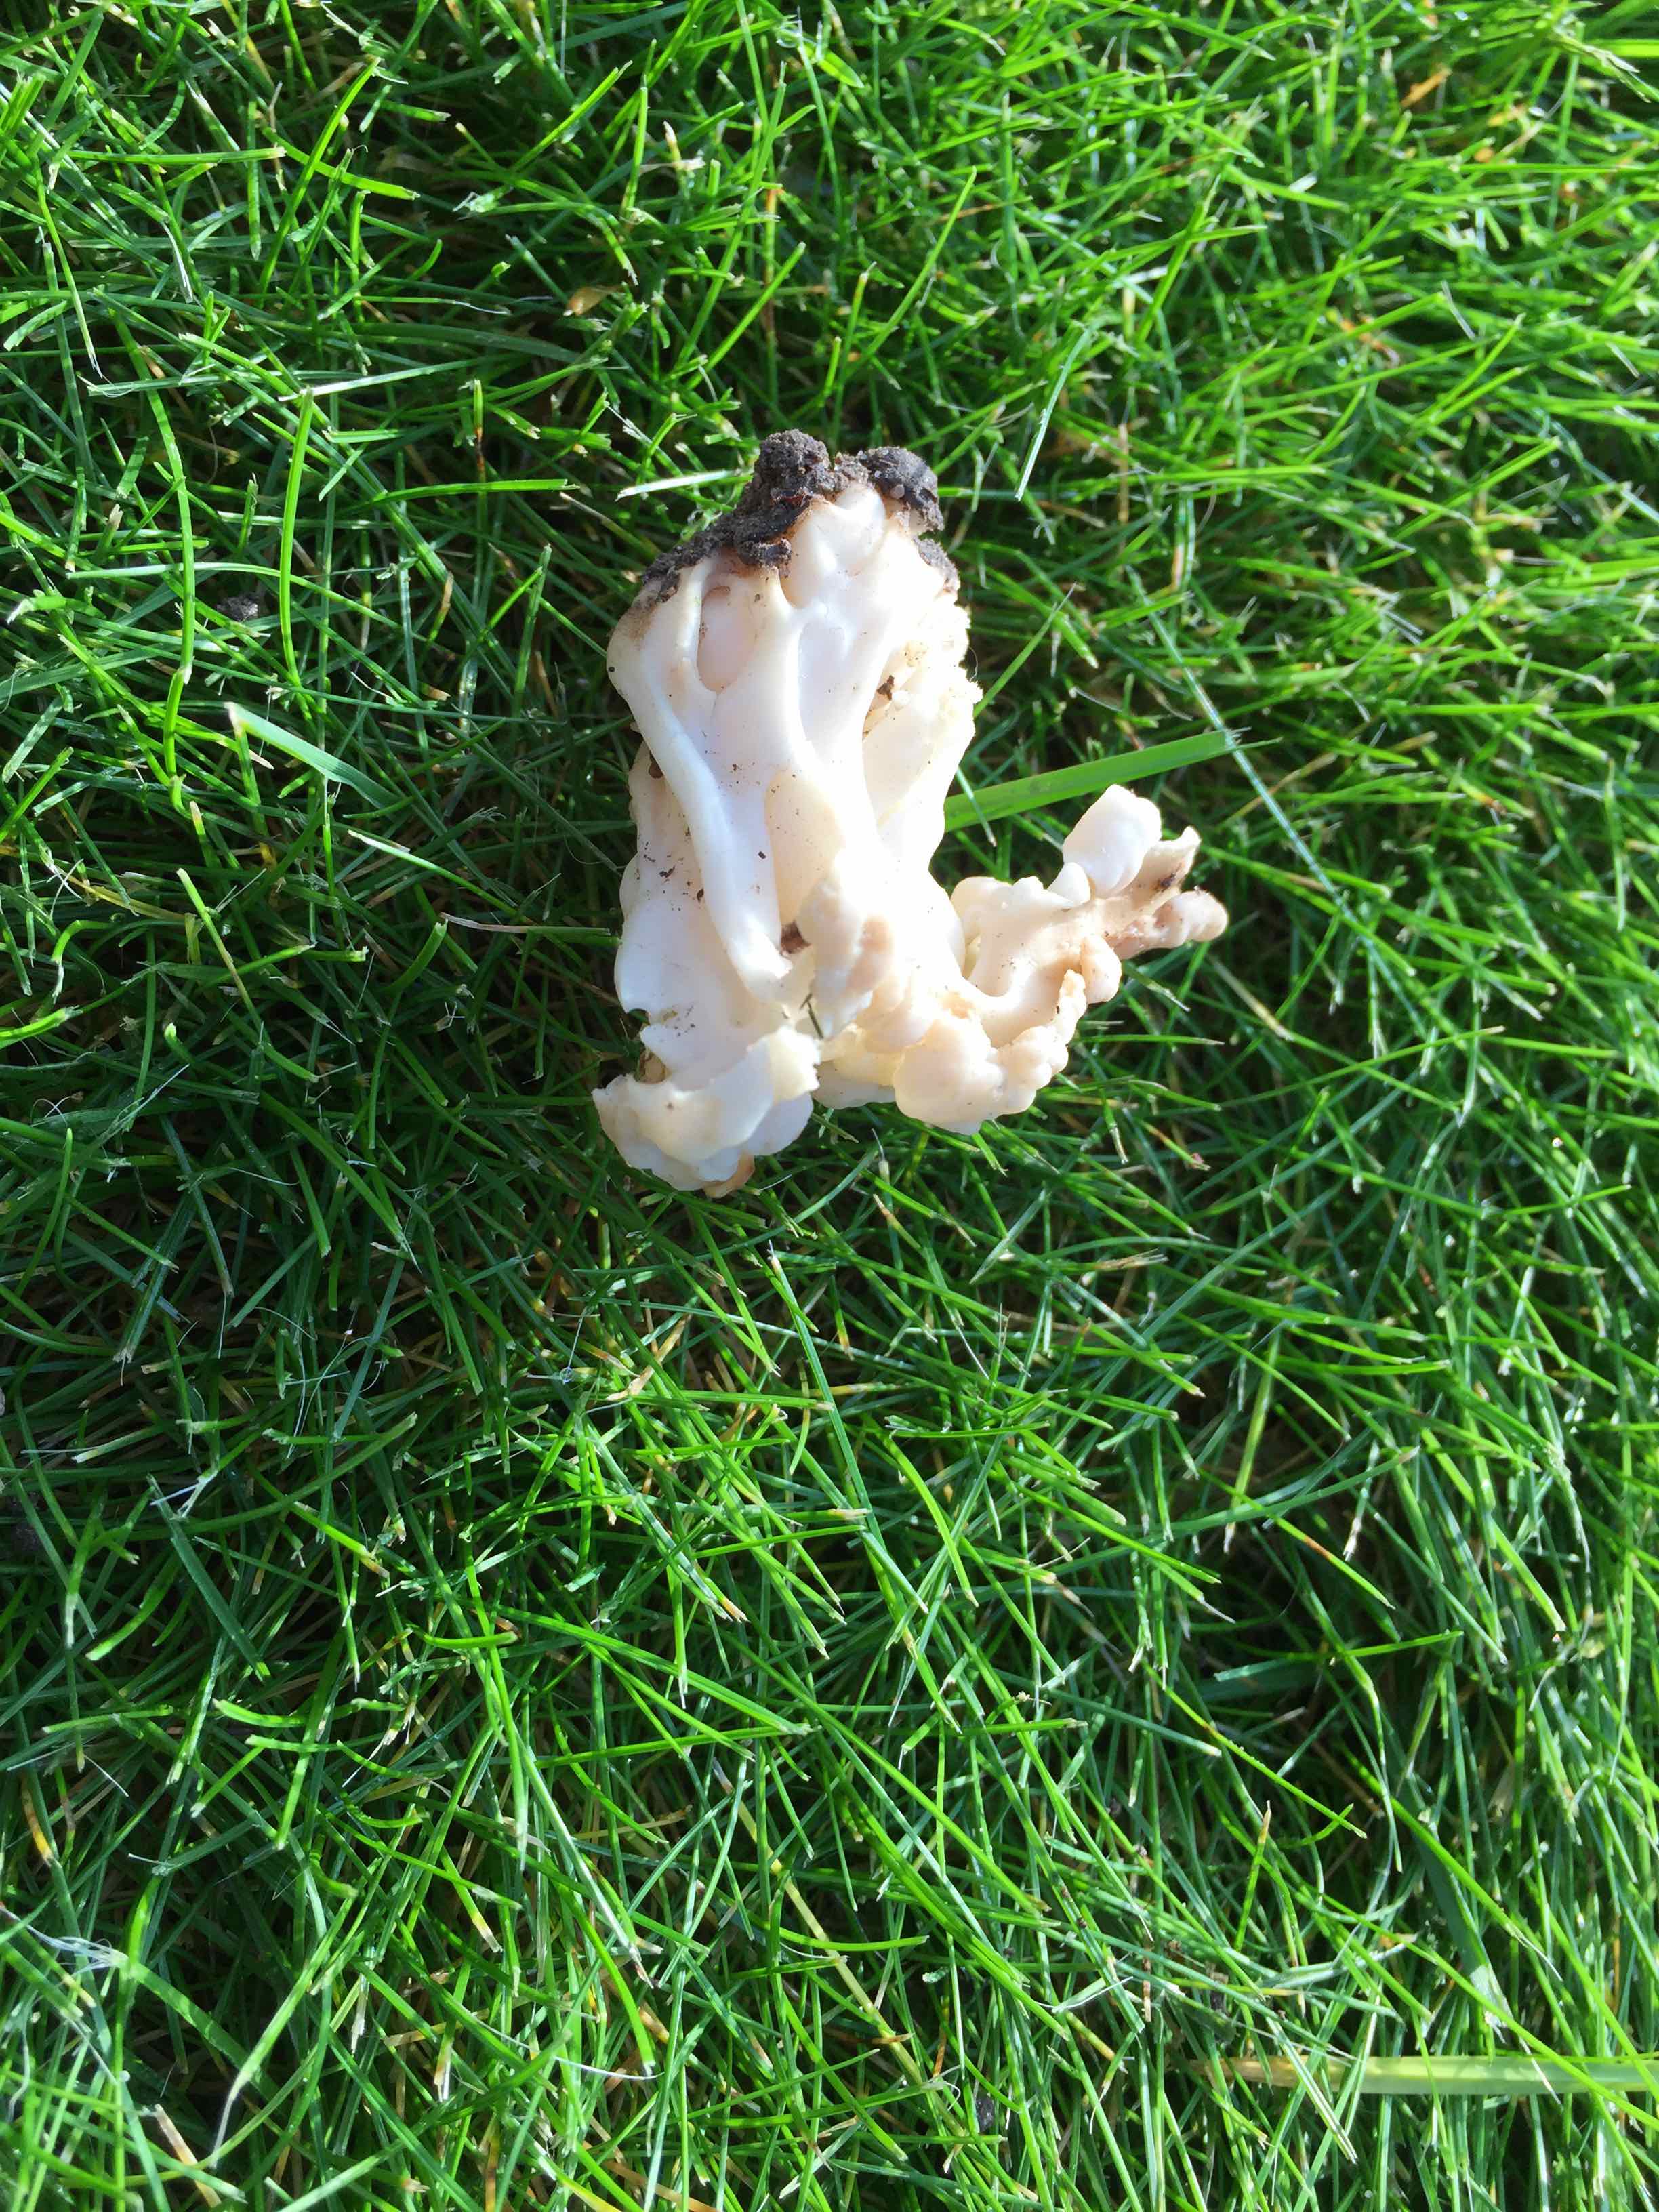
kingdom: Fungi
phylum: Ascomycota
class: Pezizomycetes
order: Pezizales
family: Helvellaceae
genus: Helvella
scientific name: Helvella crispa
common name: kruset foldhat
